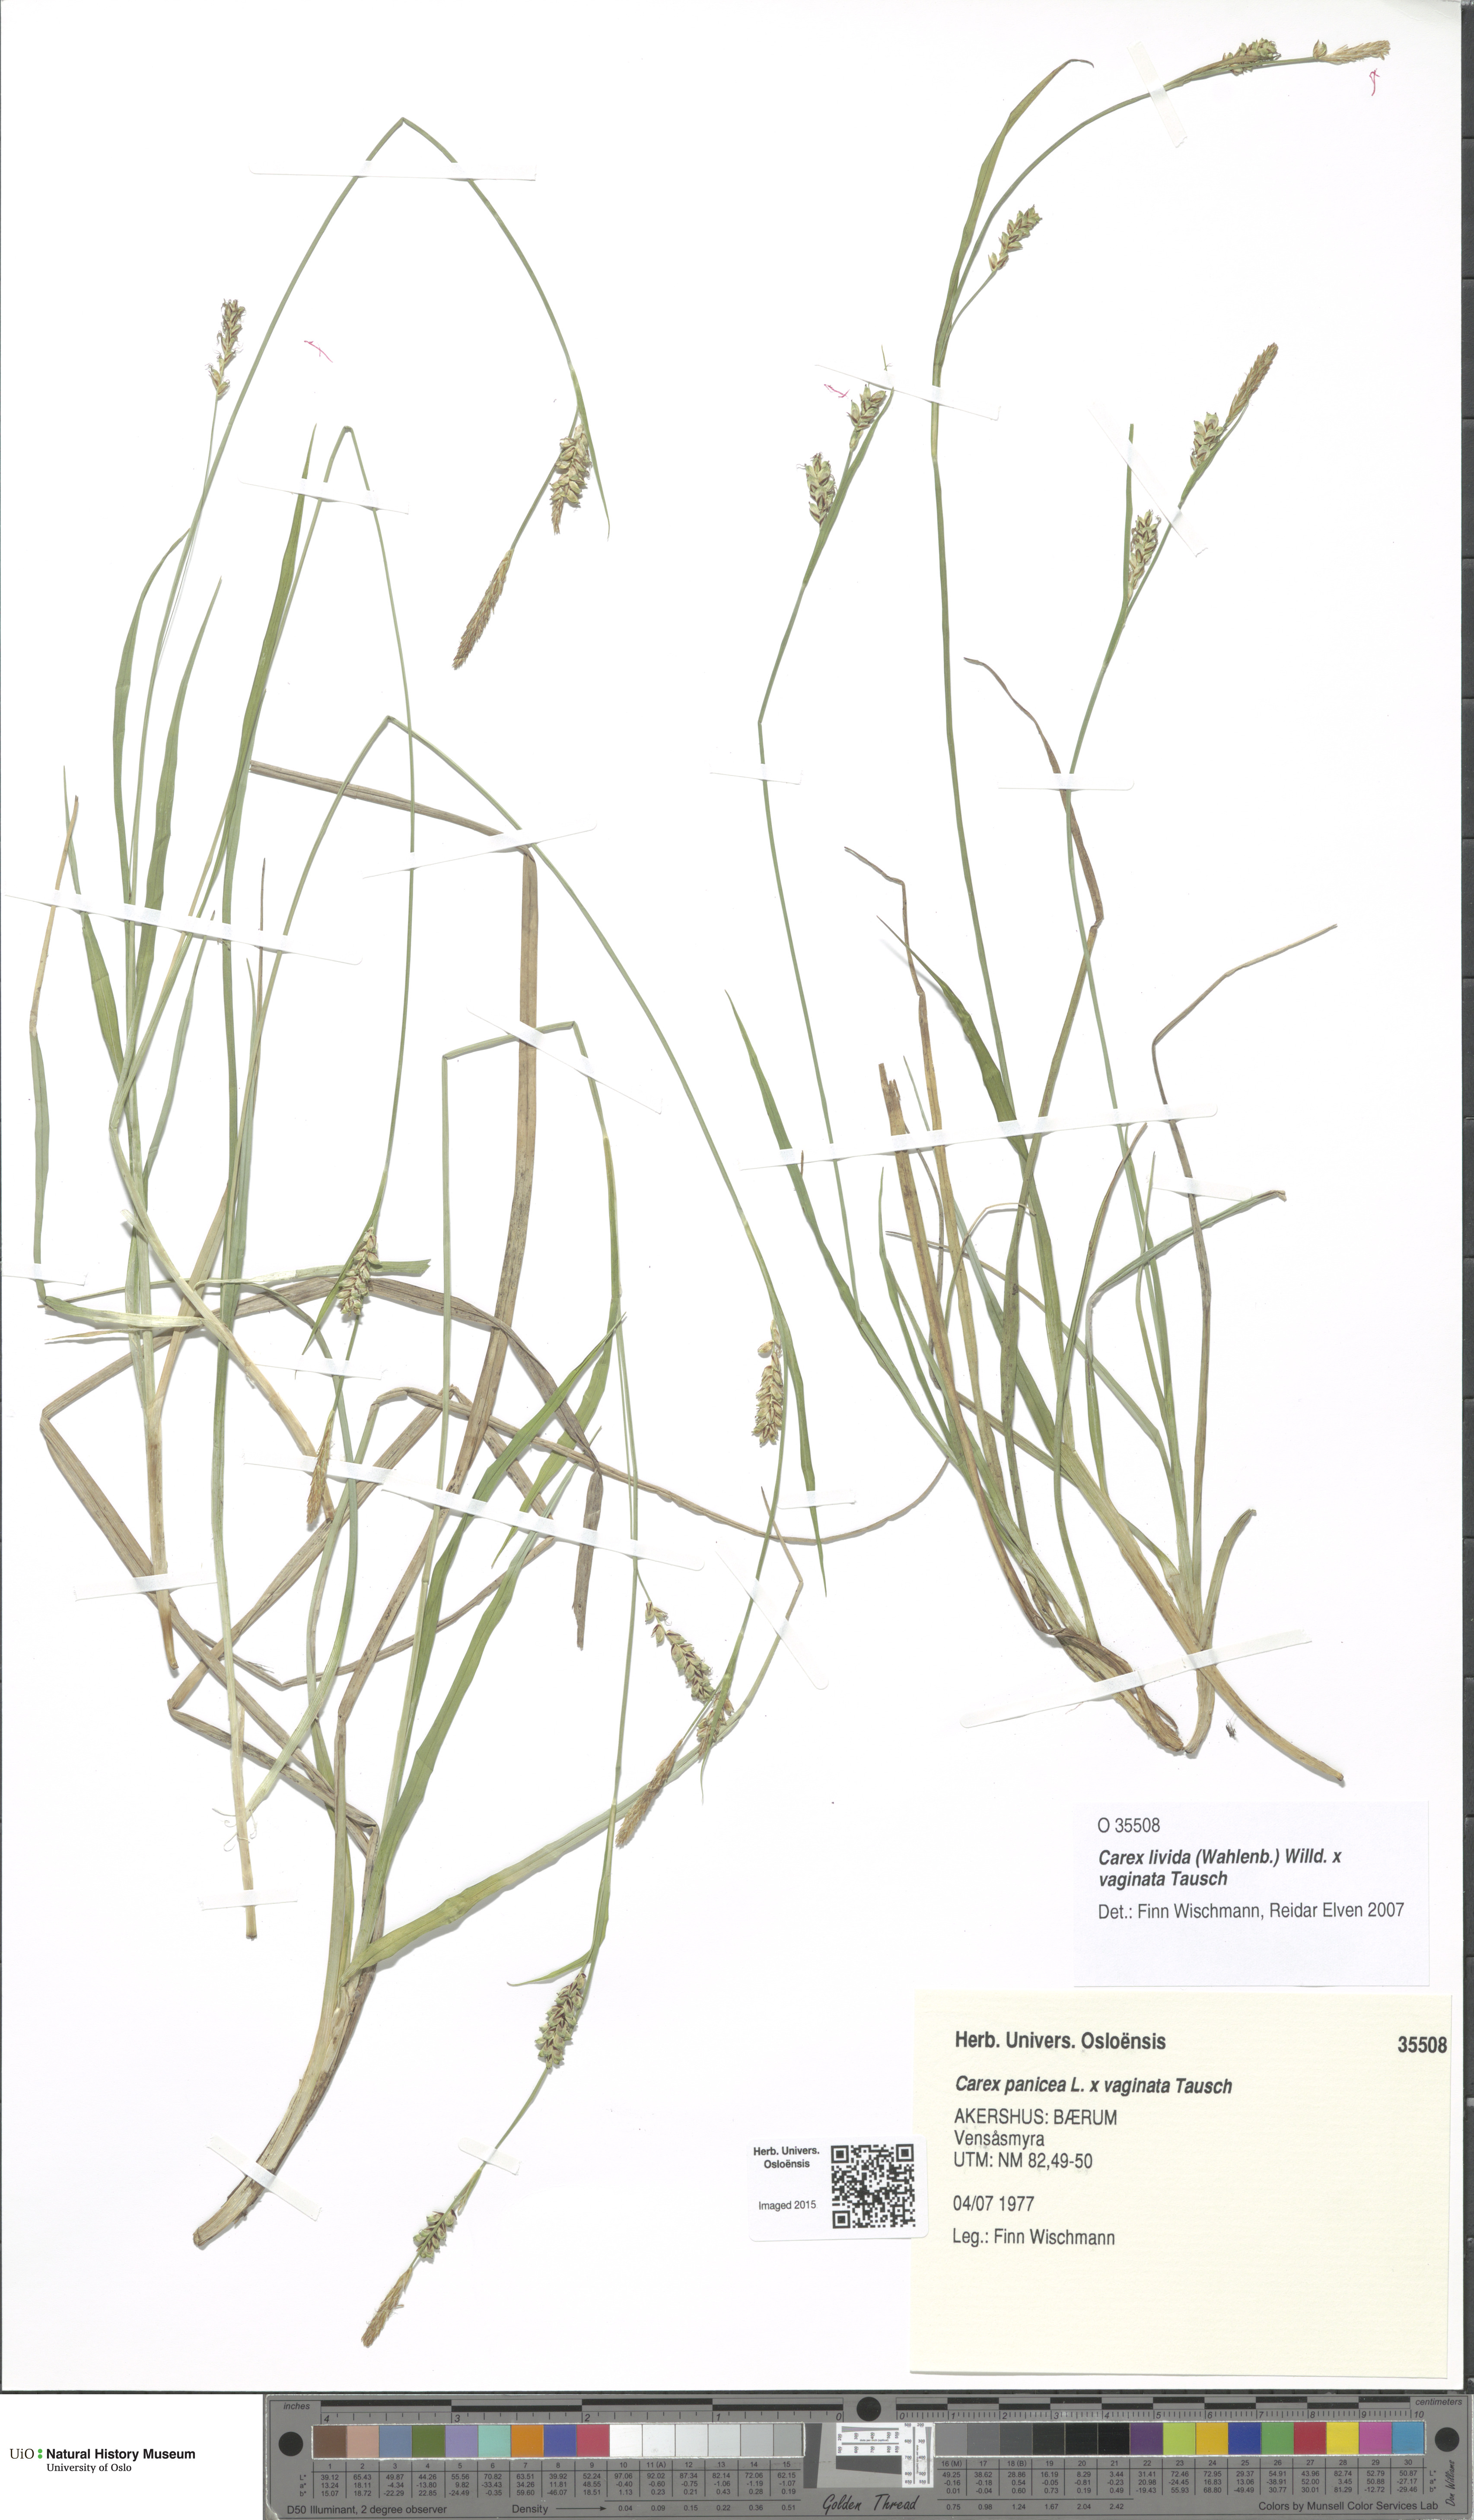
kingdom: Plantae
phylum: Tracheophyta
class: Liliopsida
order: Poales
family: Cyperaceae
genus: Carex
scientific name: Carex
